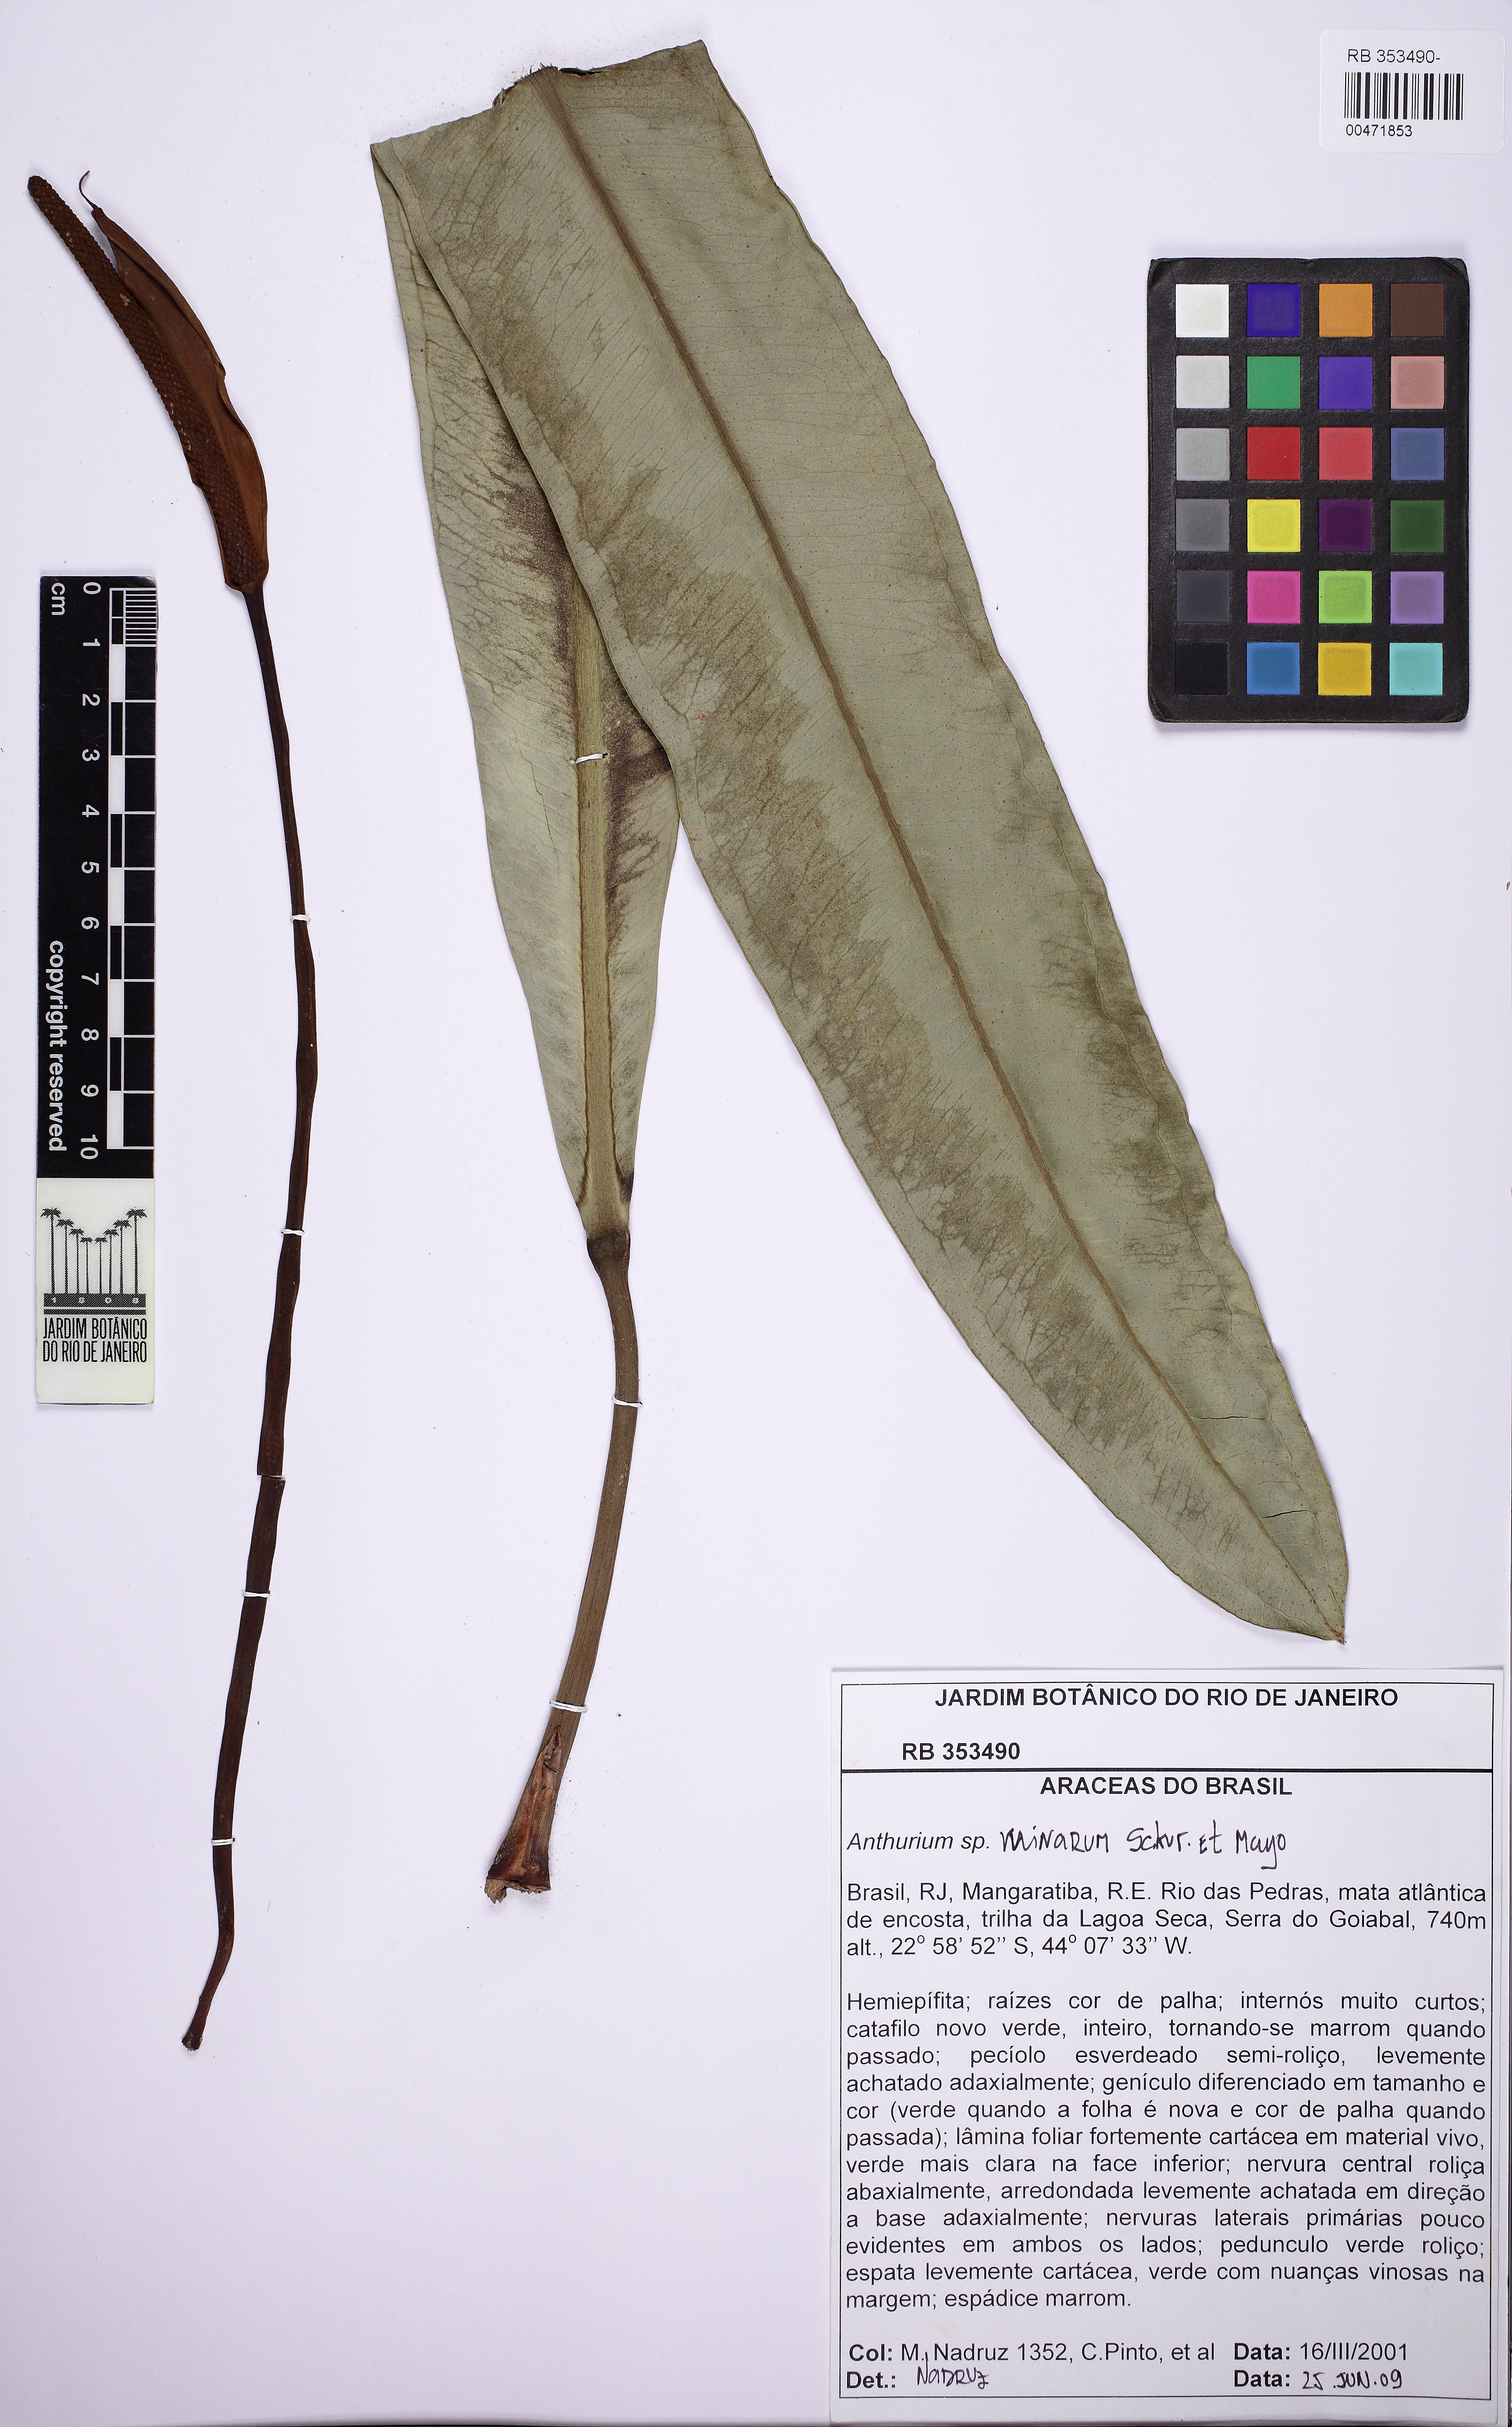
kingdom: Plantae
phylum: Tracheophyta
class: Liliopsida
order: Alismatales
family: Araceae
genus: Anthurium
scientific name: Anthurium minarum
